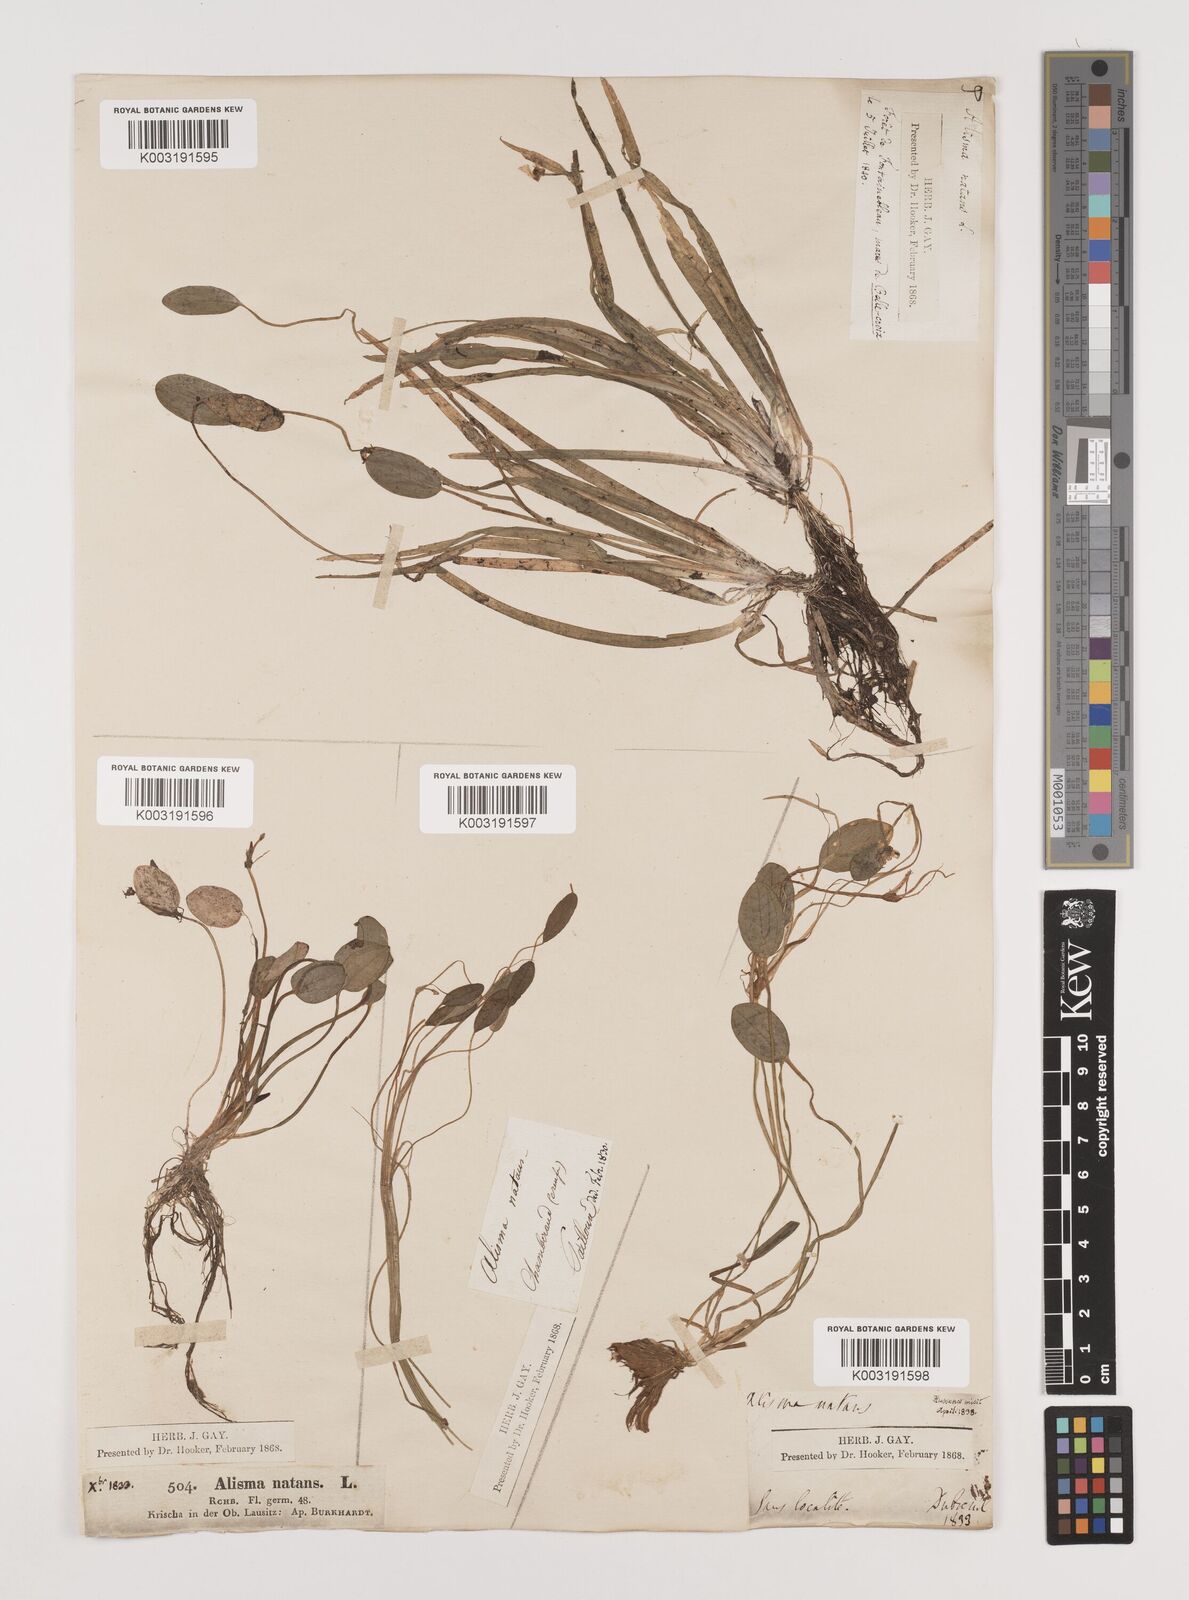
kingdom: Plantae
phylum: Tracheophyta
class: Liliopsida
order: Alismatales
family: Alismataceae
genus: Luronium
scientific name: Luronium natans
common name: Floating water-plantain
